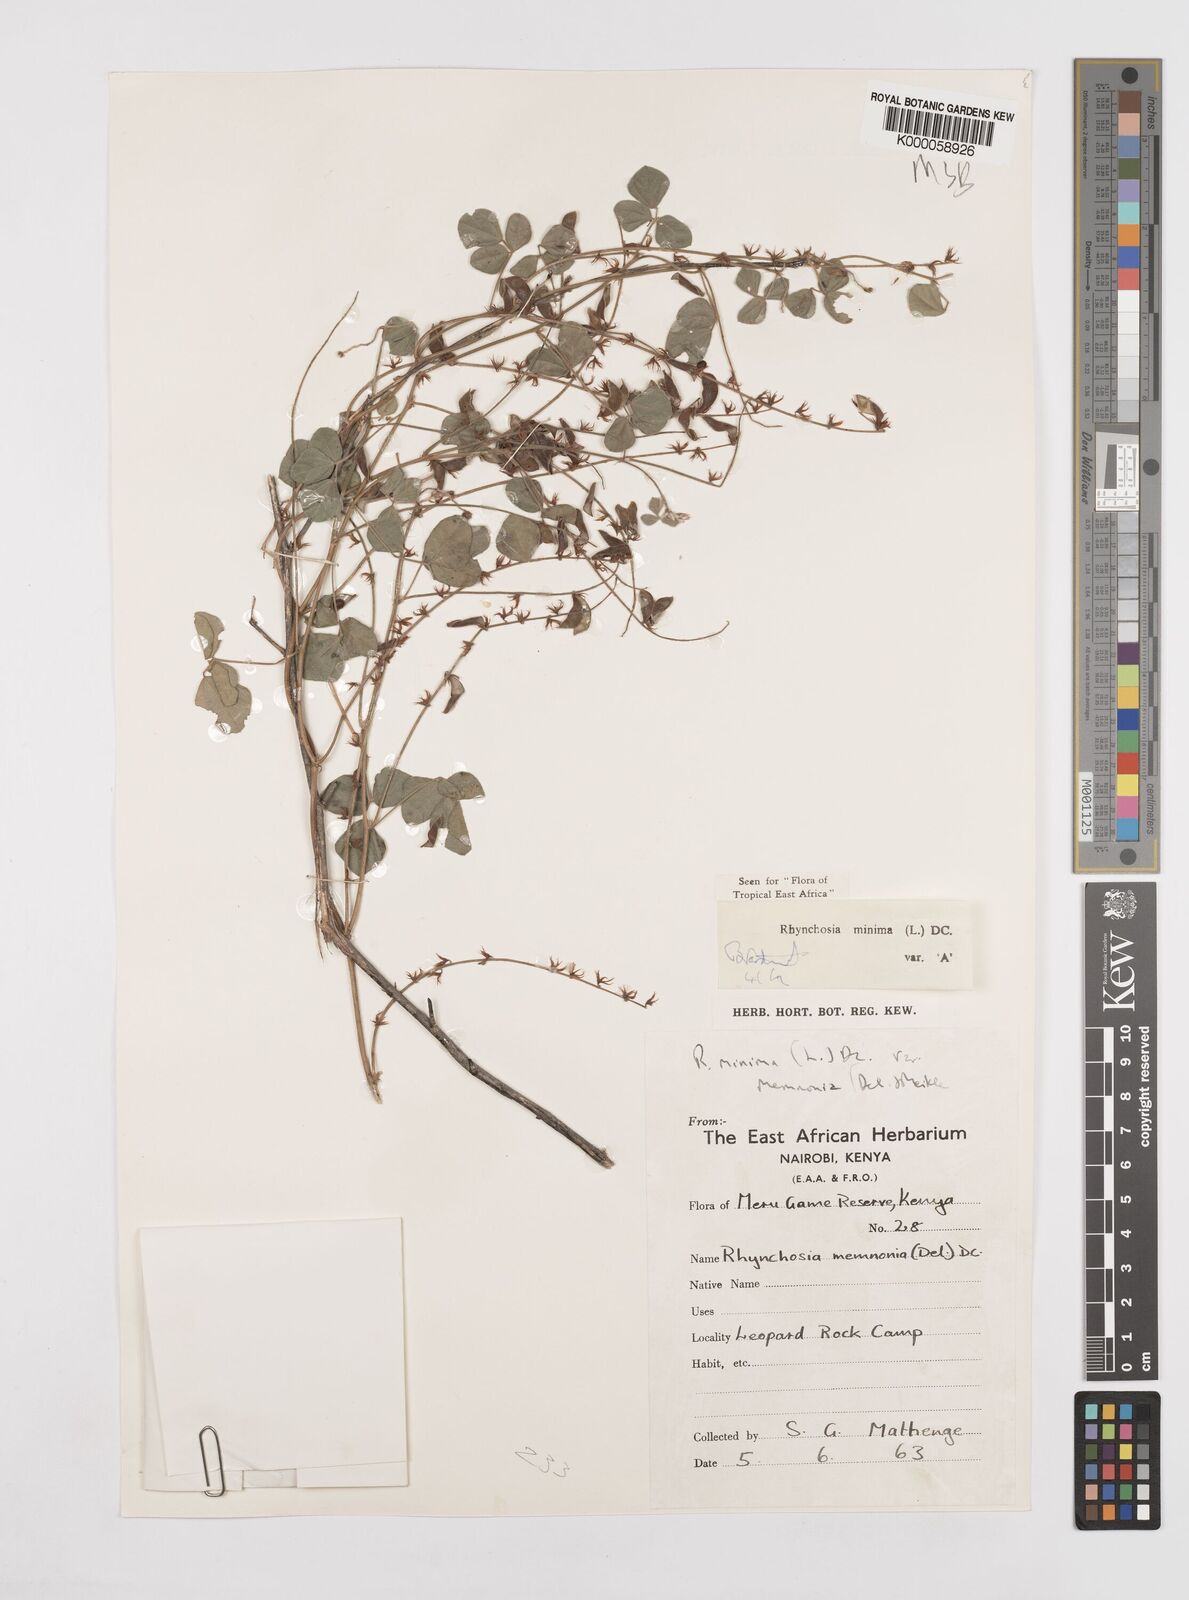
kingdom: Plantae
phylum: Tracheophyta
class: Magnoliopsida
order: Fabales
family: Fabaceae
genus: Rhynchosia
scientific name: Rhynchosia minima
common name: Least snoutbean
